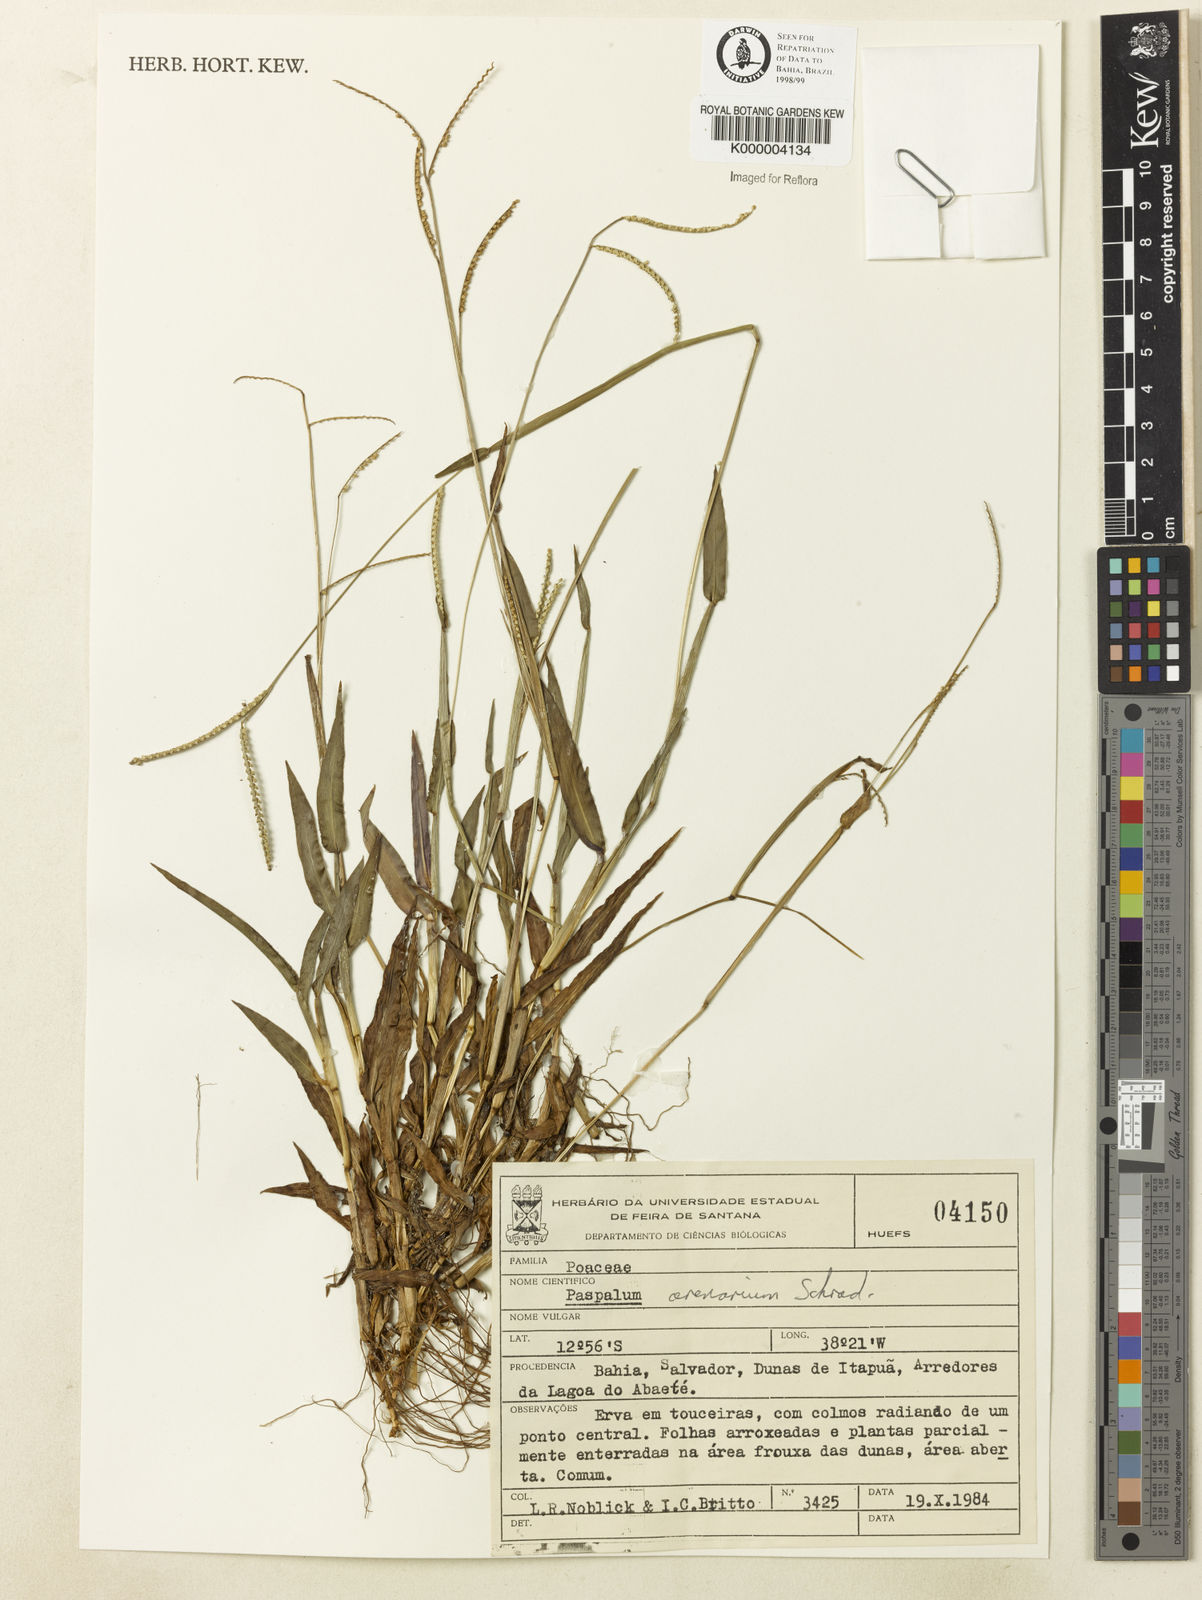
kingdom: Plantae
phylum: Tracheophyta
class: Liliopsida
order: Poales
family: Poaceae
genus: Paspalum
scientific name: Paspalum arenarium
